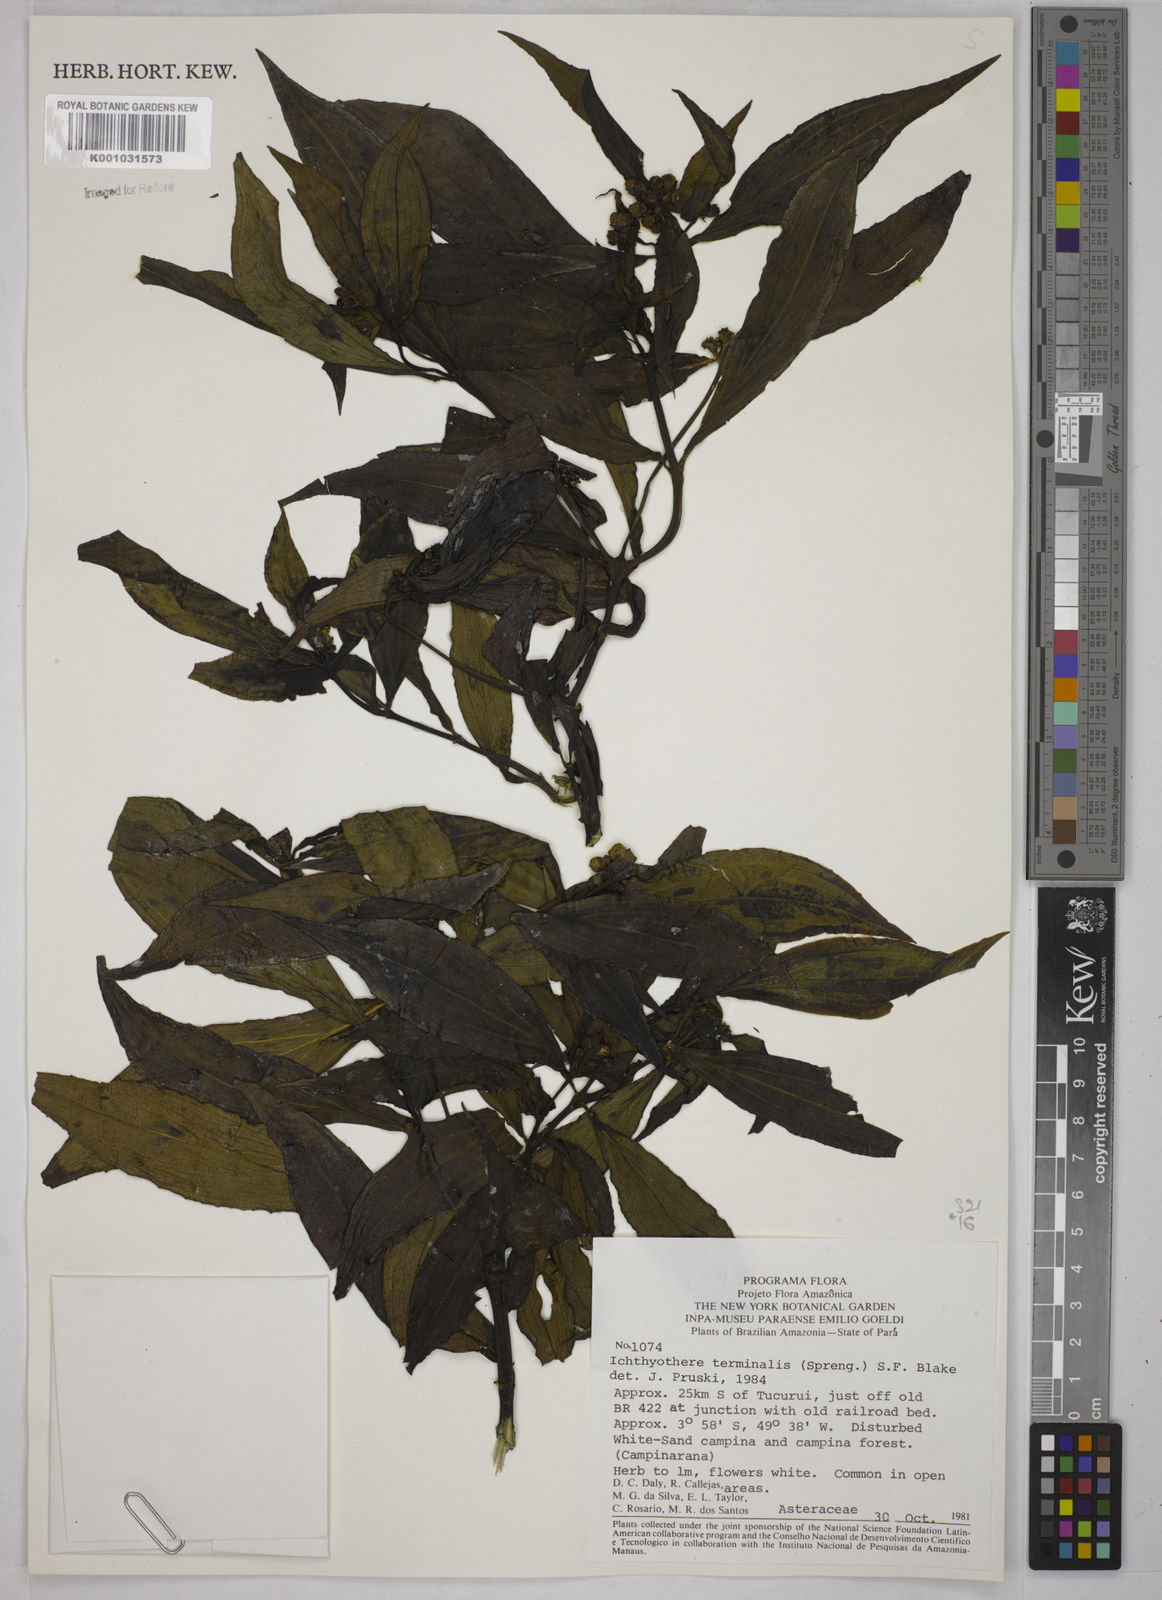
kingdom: Plantae
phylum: Tracheophyta
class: Magnoliopsida
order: Asterales
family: Asteraceae
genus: Ichthyothere
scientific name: Ichthyothere cunabi
